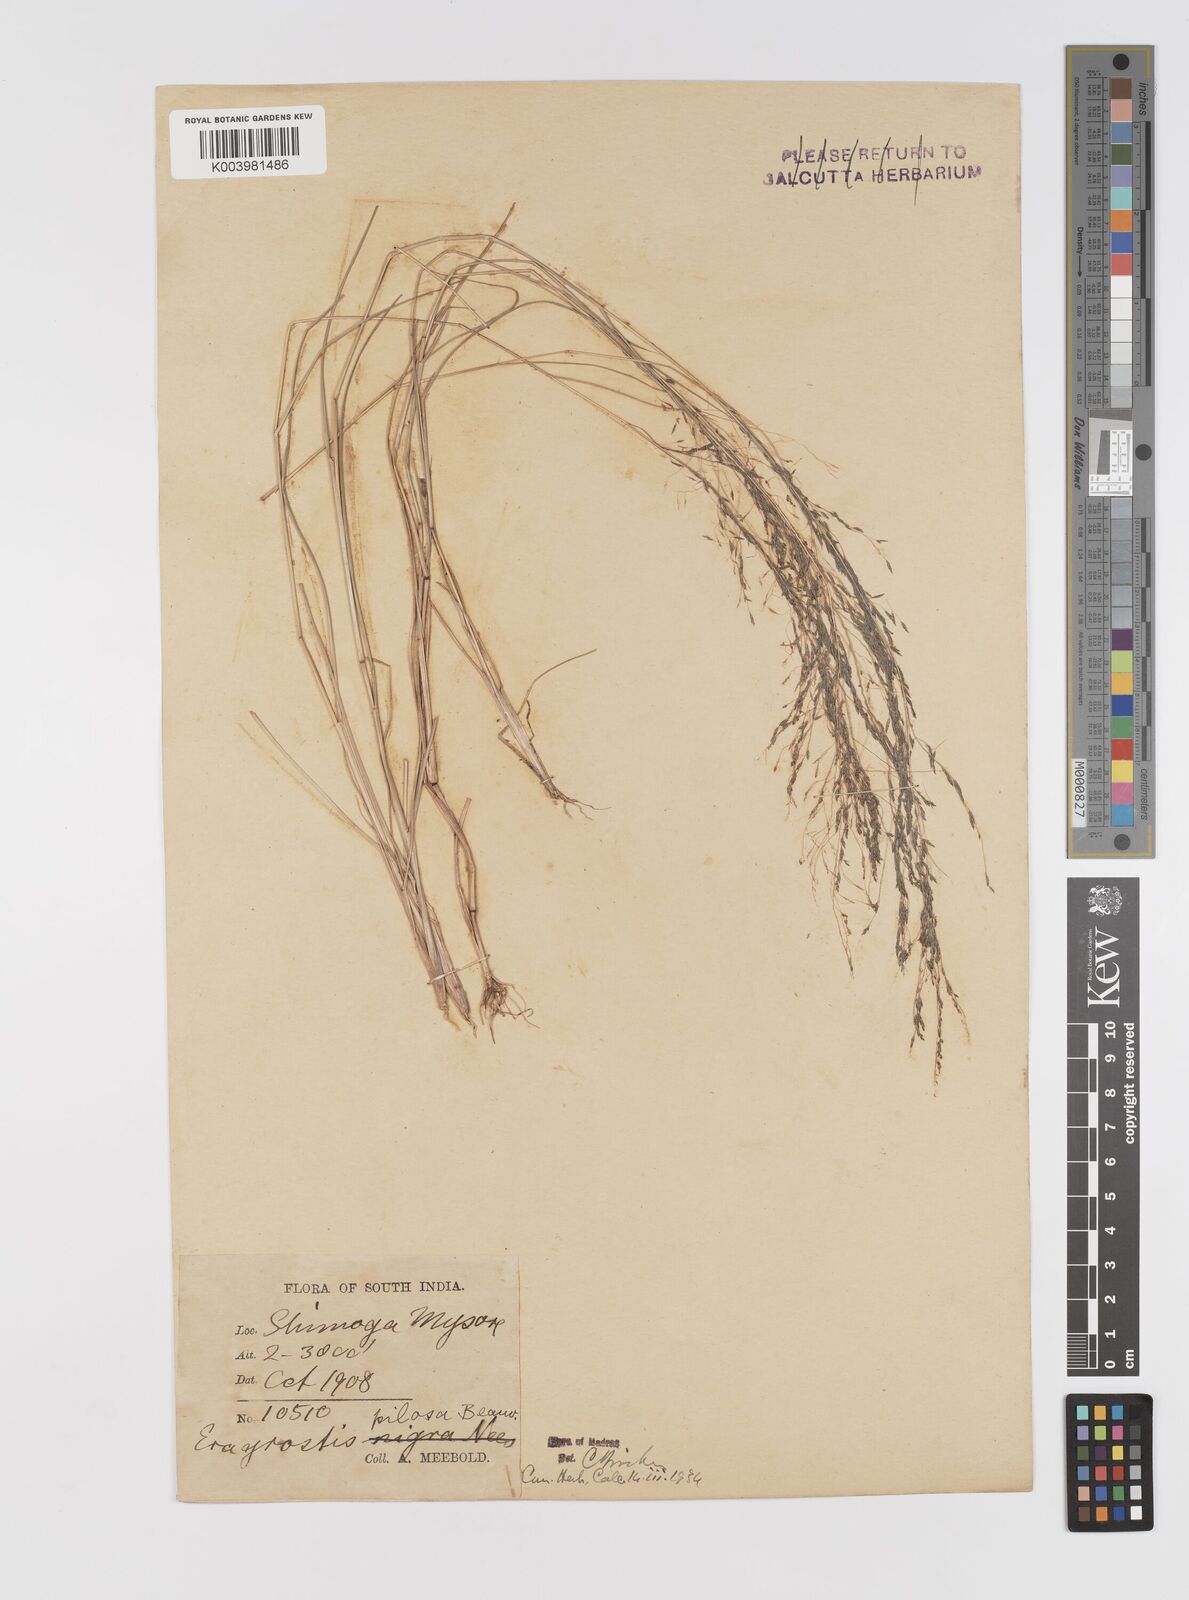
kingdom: Plantae
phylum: Tracheophyta
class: Liliopsida
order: Poales
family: Poaceae
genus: Eragrostis
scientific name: Eragrostis pilosa
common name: Indian lovegrass
